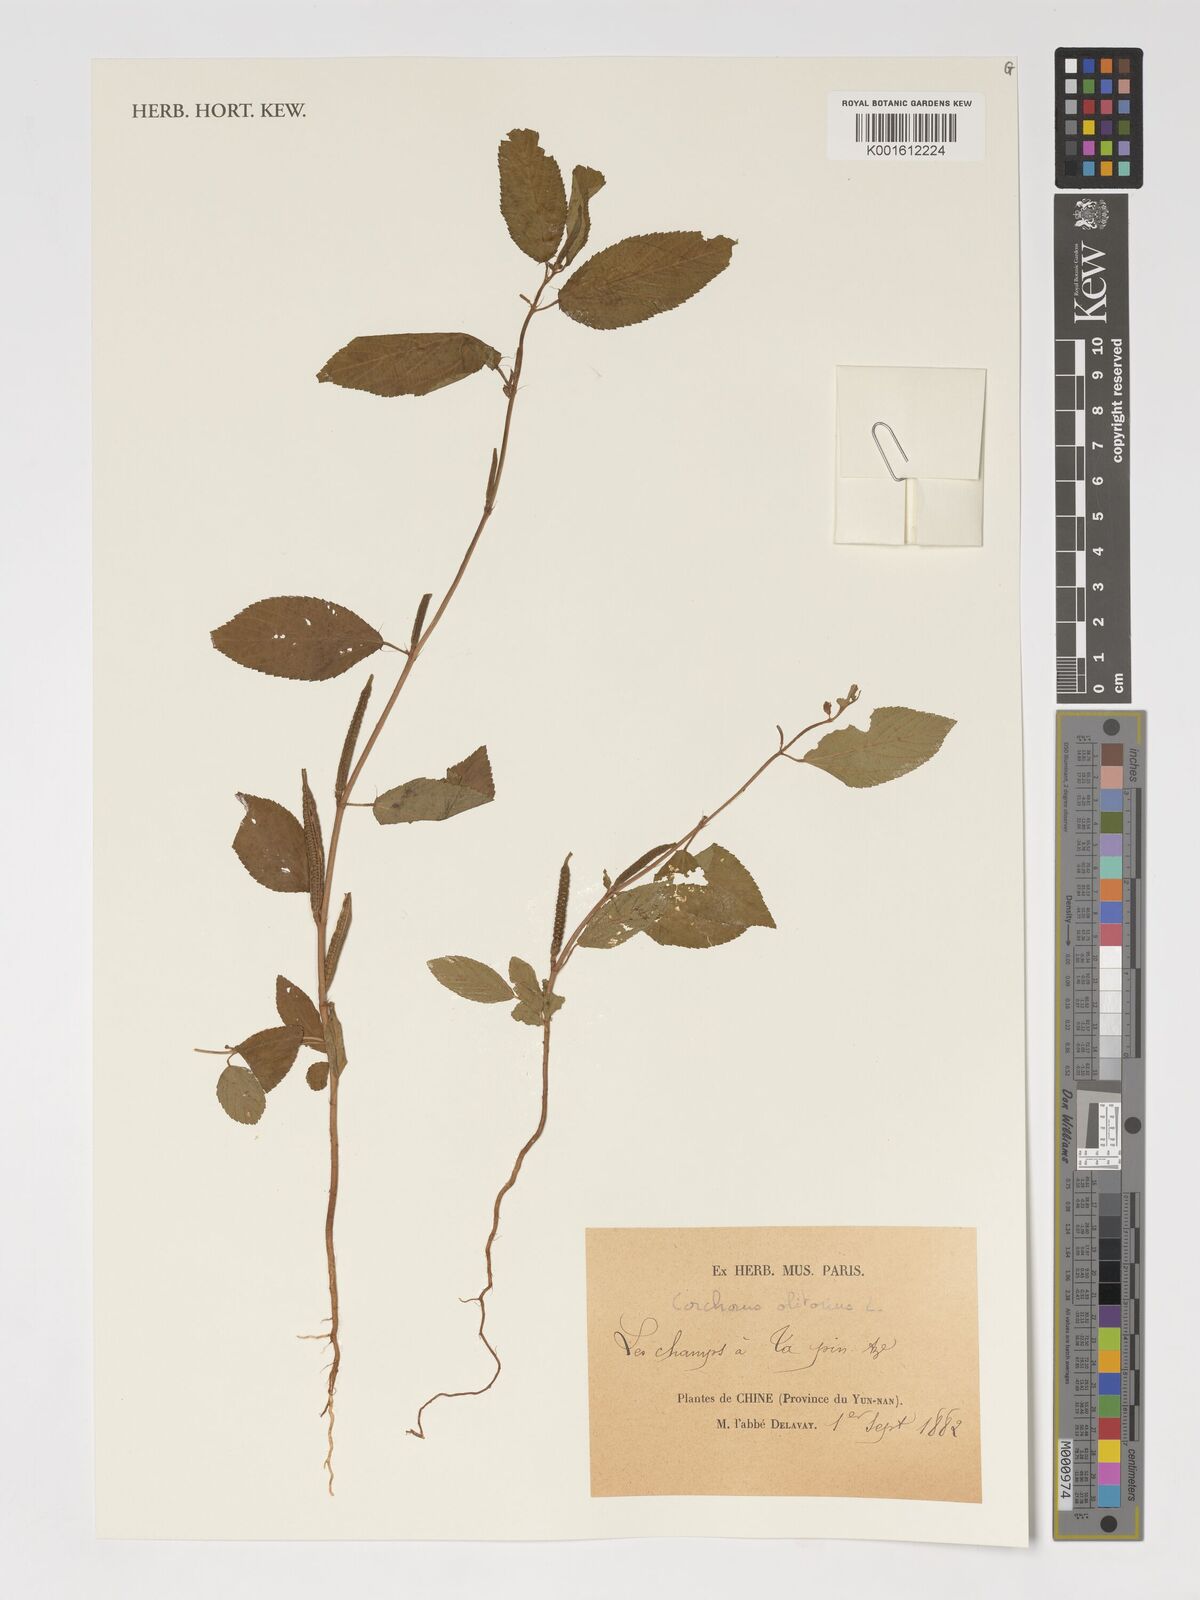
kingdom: Plantae
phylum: Tracheophyta
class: Magnoliopsida
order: Malvales
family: Malvaceae
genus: Corchorus
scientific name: Corchorus olitorius
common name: Tossa jute
